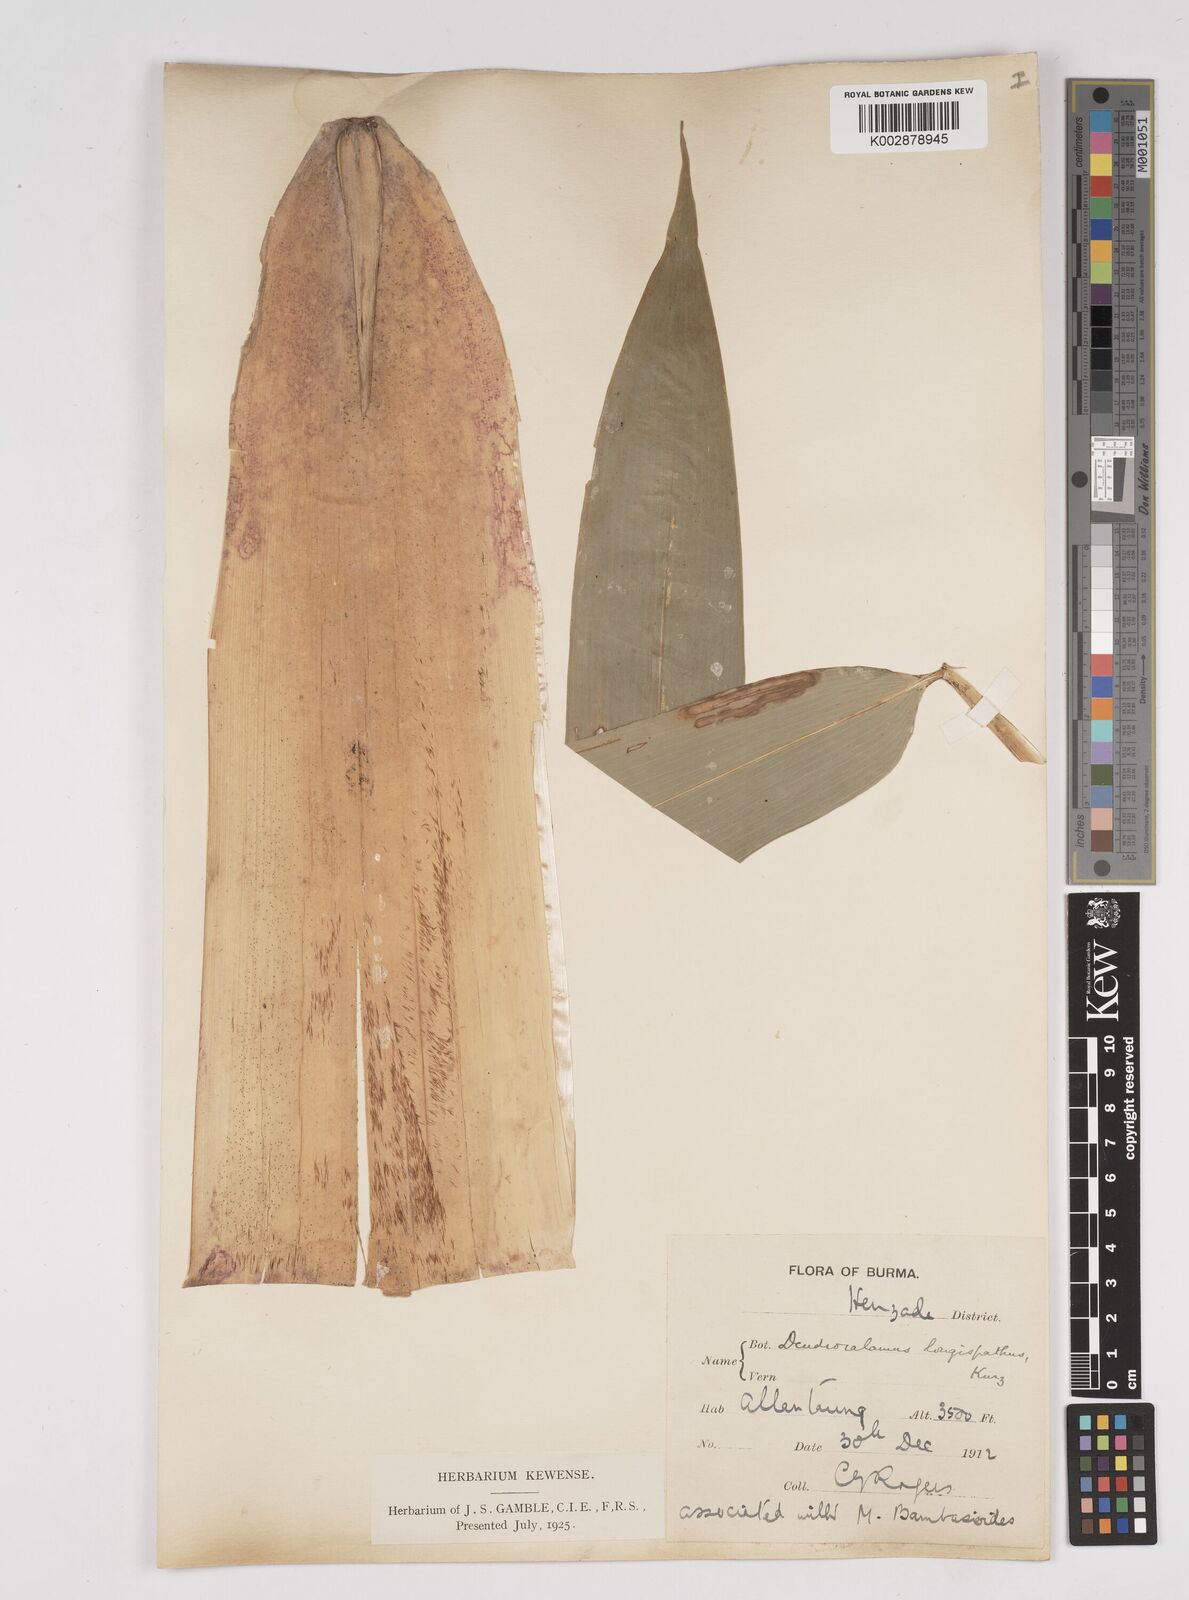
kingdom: Plantae
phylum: Tracheophyta
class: Liliopsida
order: Poales
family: Poaceae
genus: Dendrocalamus
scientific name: Dendrocalamus longispathus
